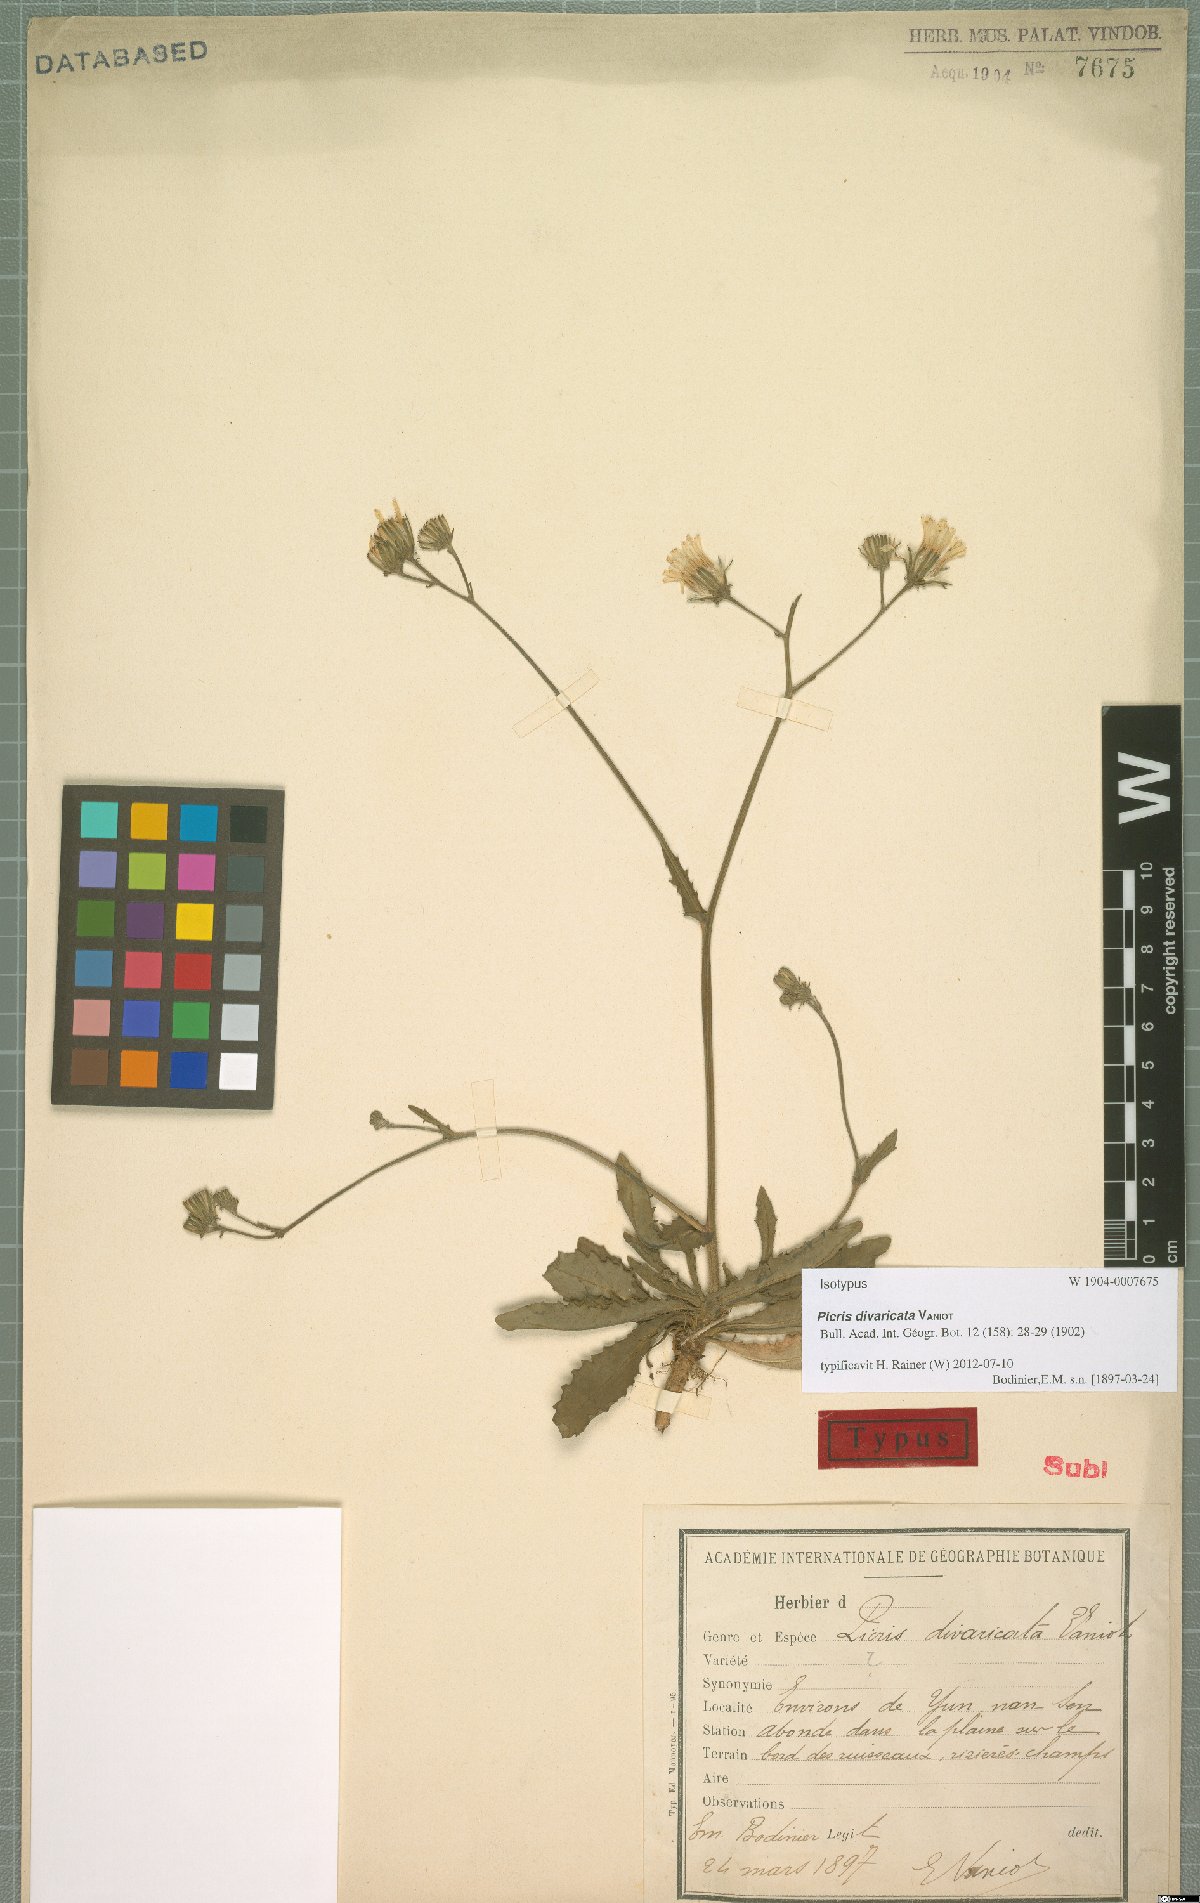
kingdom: Plantae
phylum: Tracheophyta
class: Magnoliopsida
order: Asterales
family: Asteraceae
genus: Picris
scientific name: Picris divaricata
